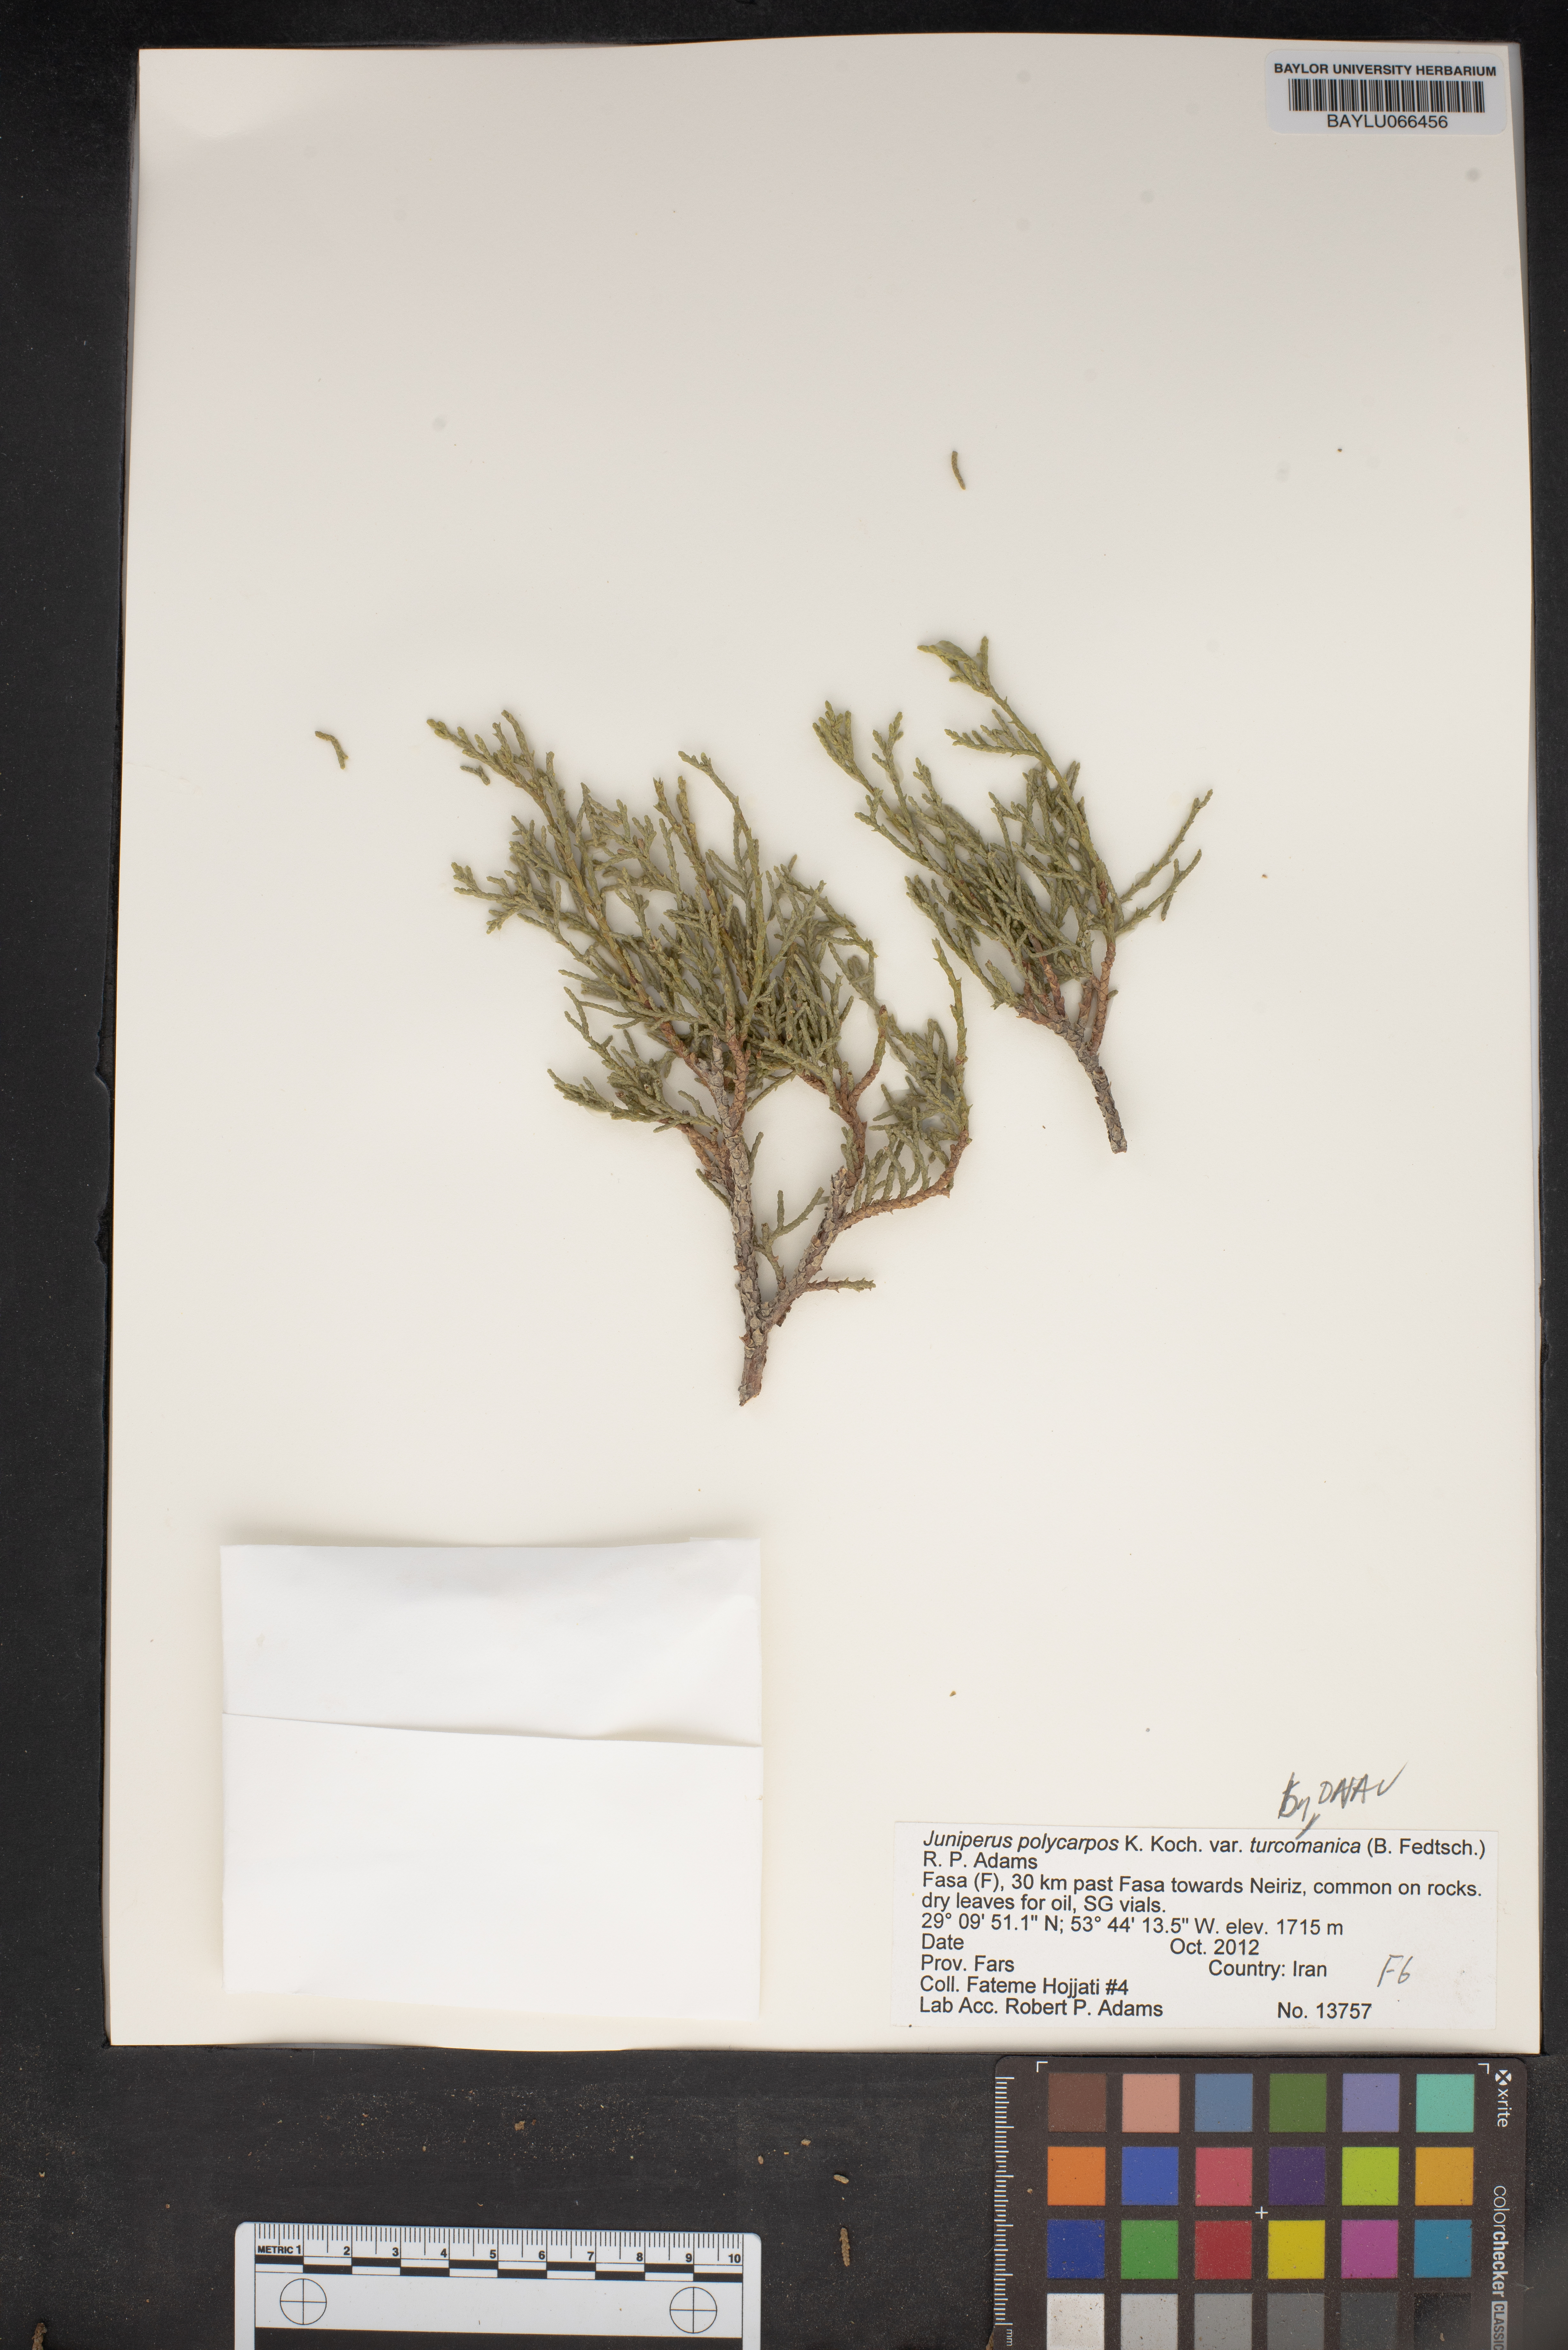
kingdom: Plantae
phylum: Tracheophyta
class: Pinopsida
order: Pinales
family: Cupressaceae
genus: Juniperus
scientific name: Juniperus excelsa
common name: Crimean juniper
